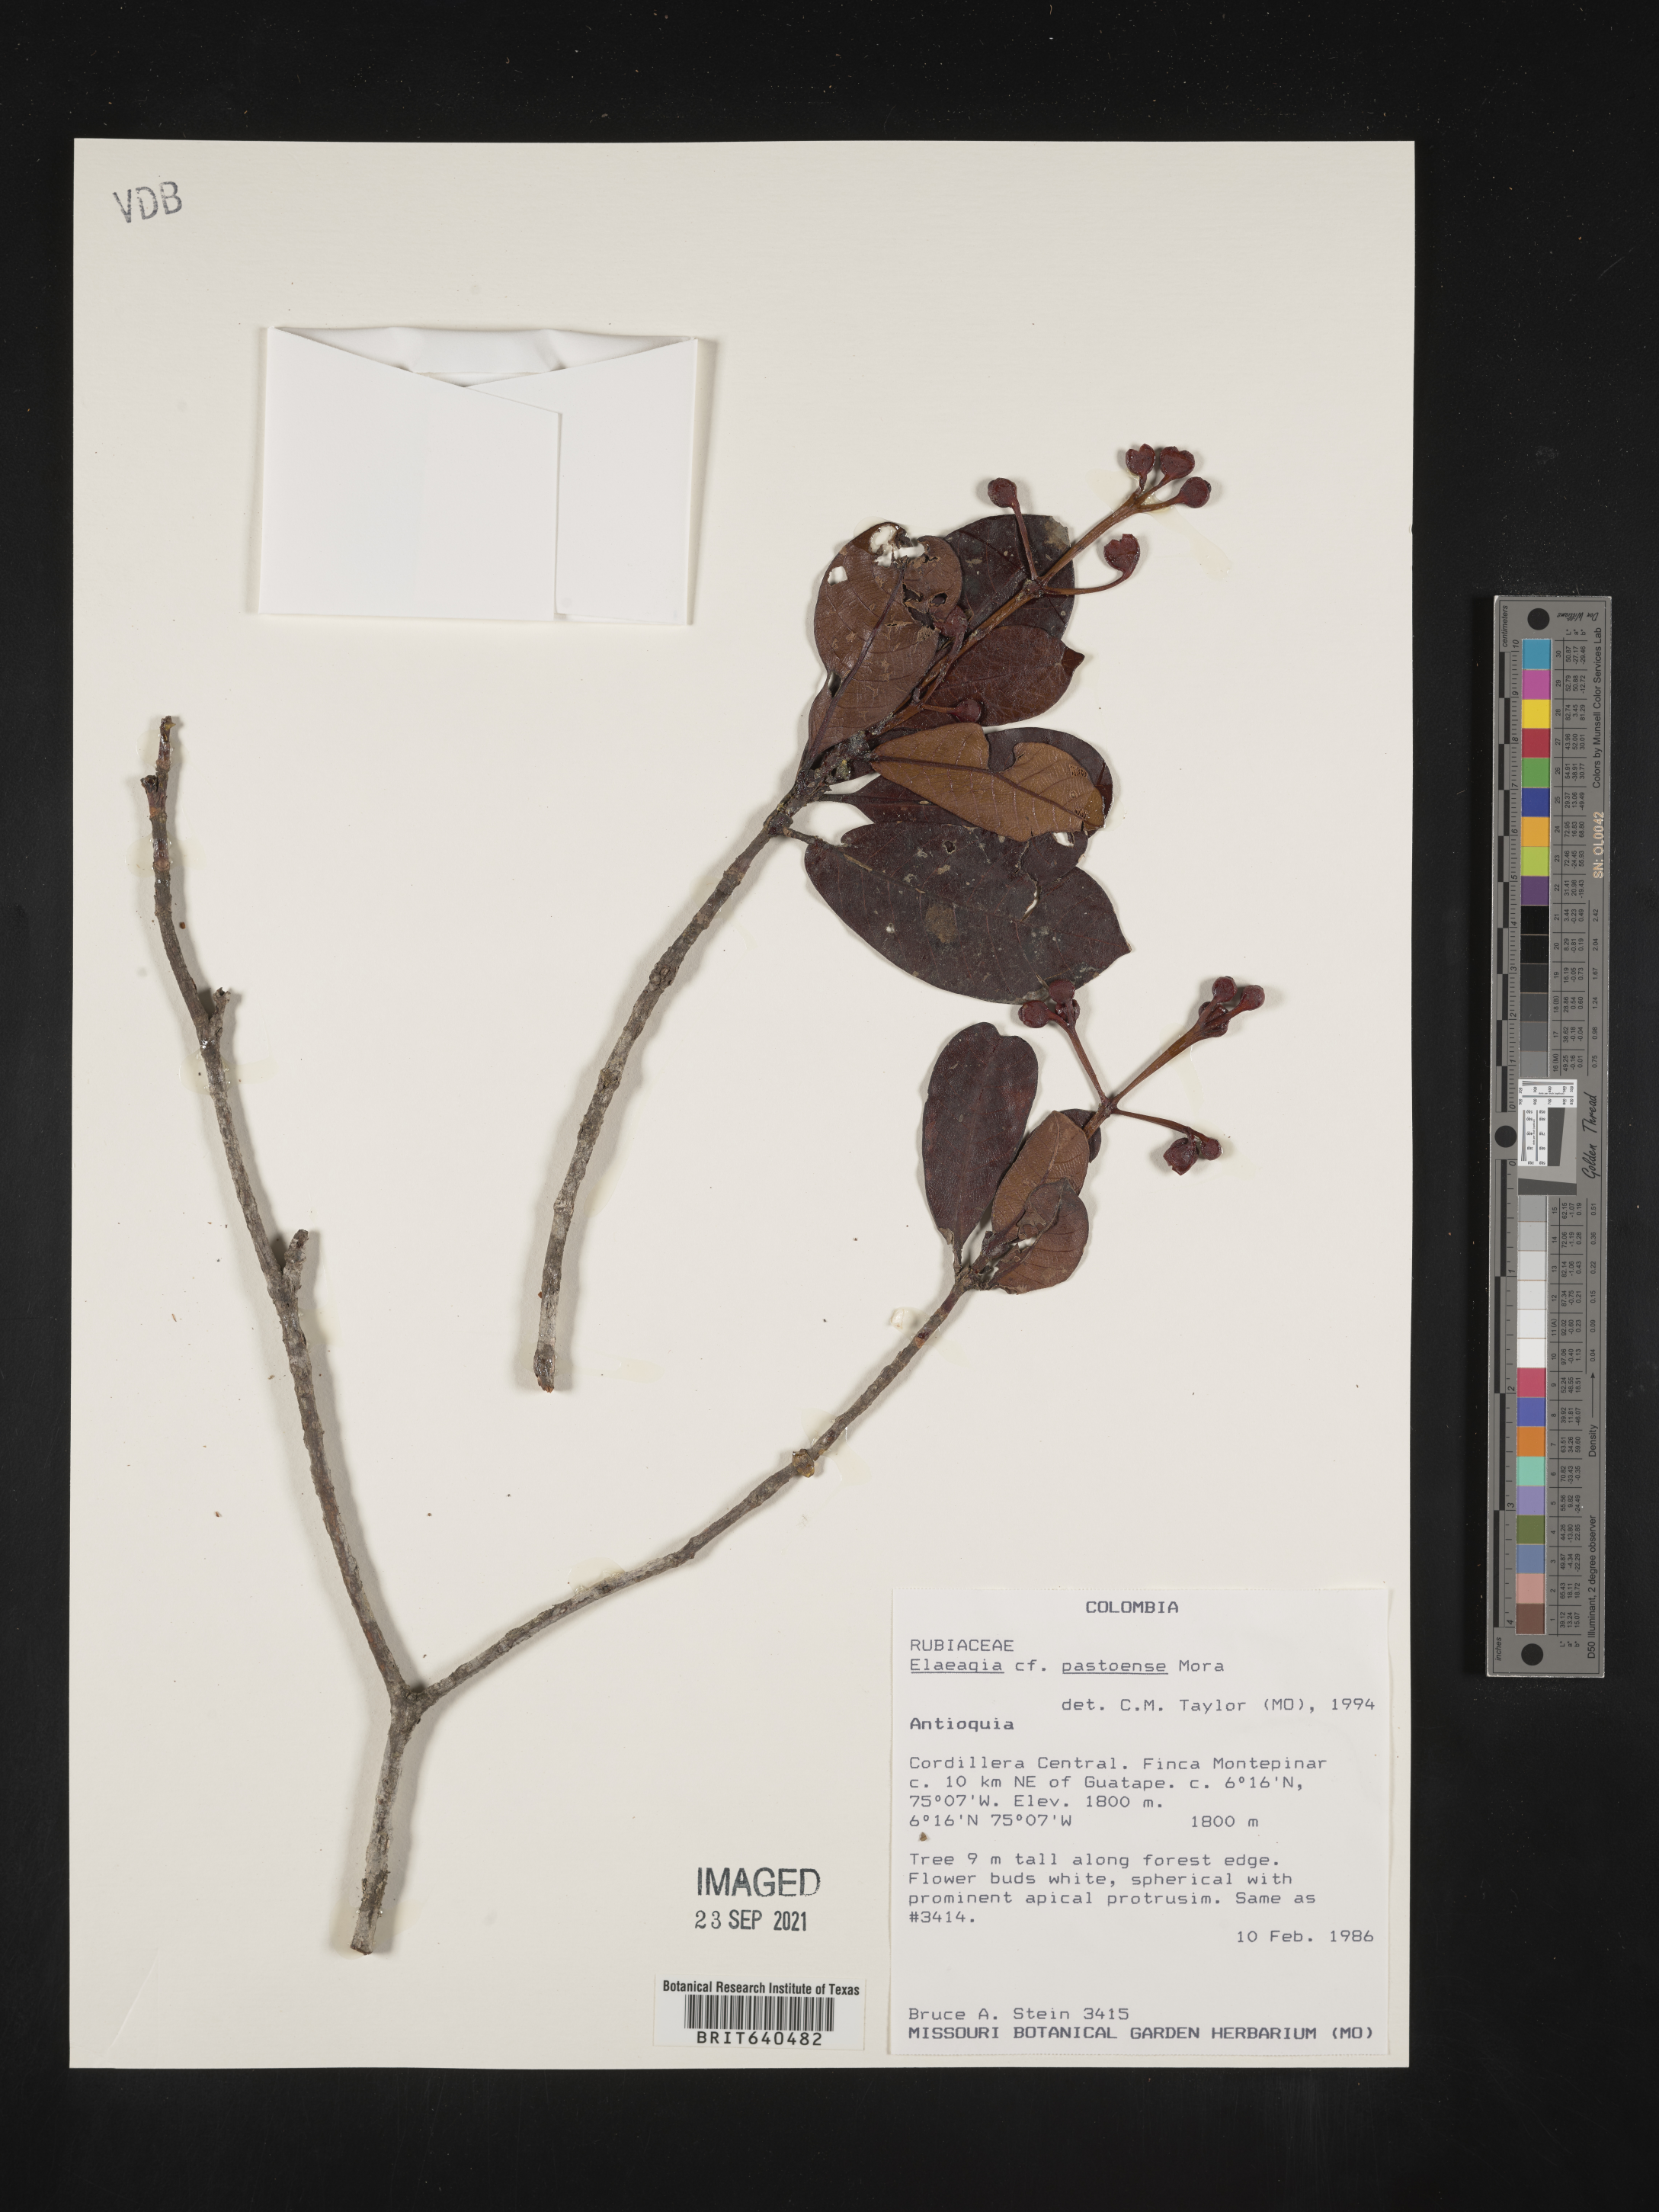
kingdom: Plantae
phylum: Tracheophyta
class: Magnoliopsida
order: Gentianales
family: Rubiaceae
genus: Elaeagia
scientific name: Elaeagia
